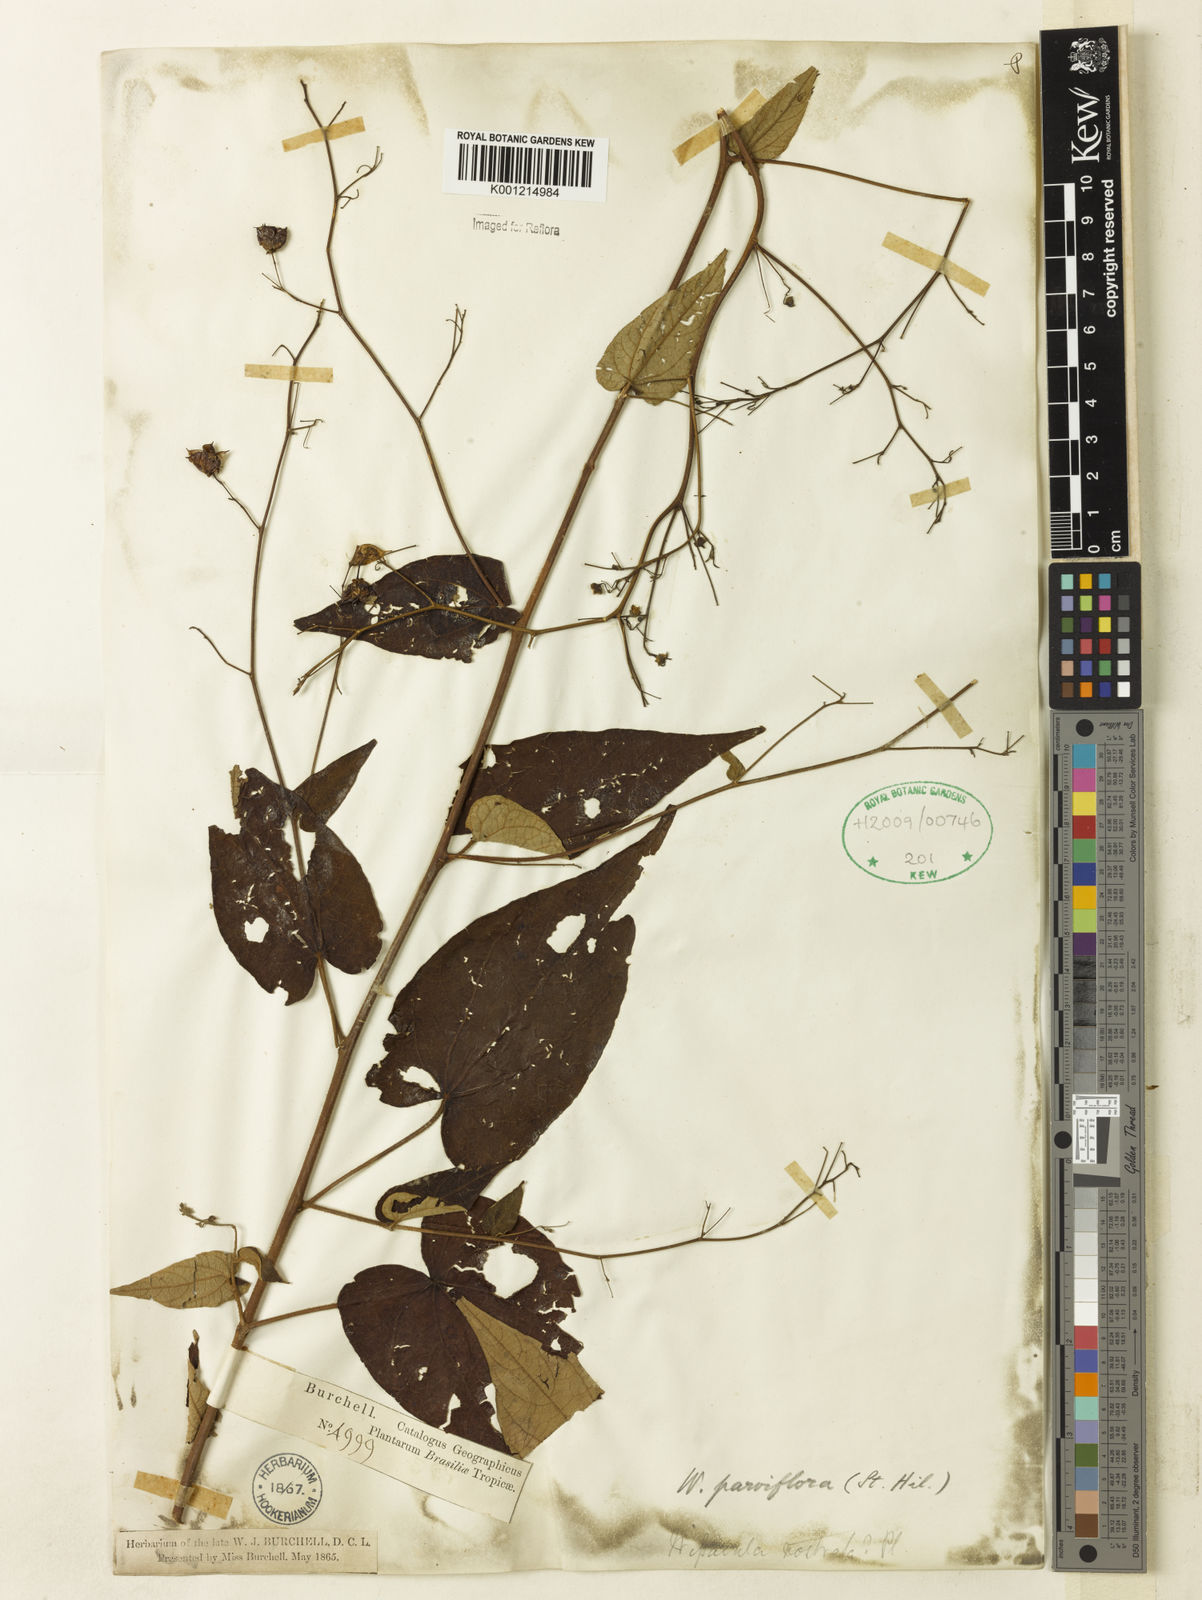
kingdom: Plantae
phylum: Tracheophyta
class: Magnoliopsida
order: Malvales
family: Malvaceae
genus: Wissadula
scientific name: Wissadula parviflora
